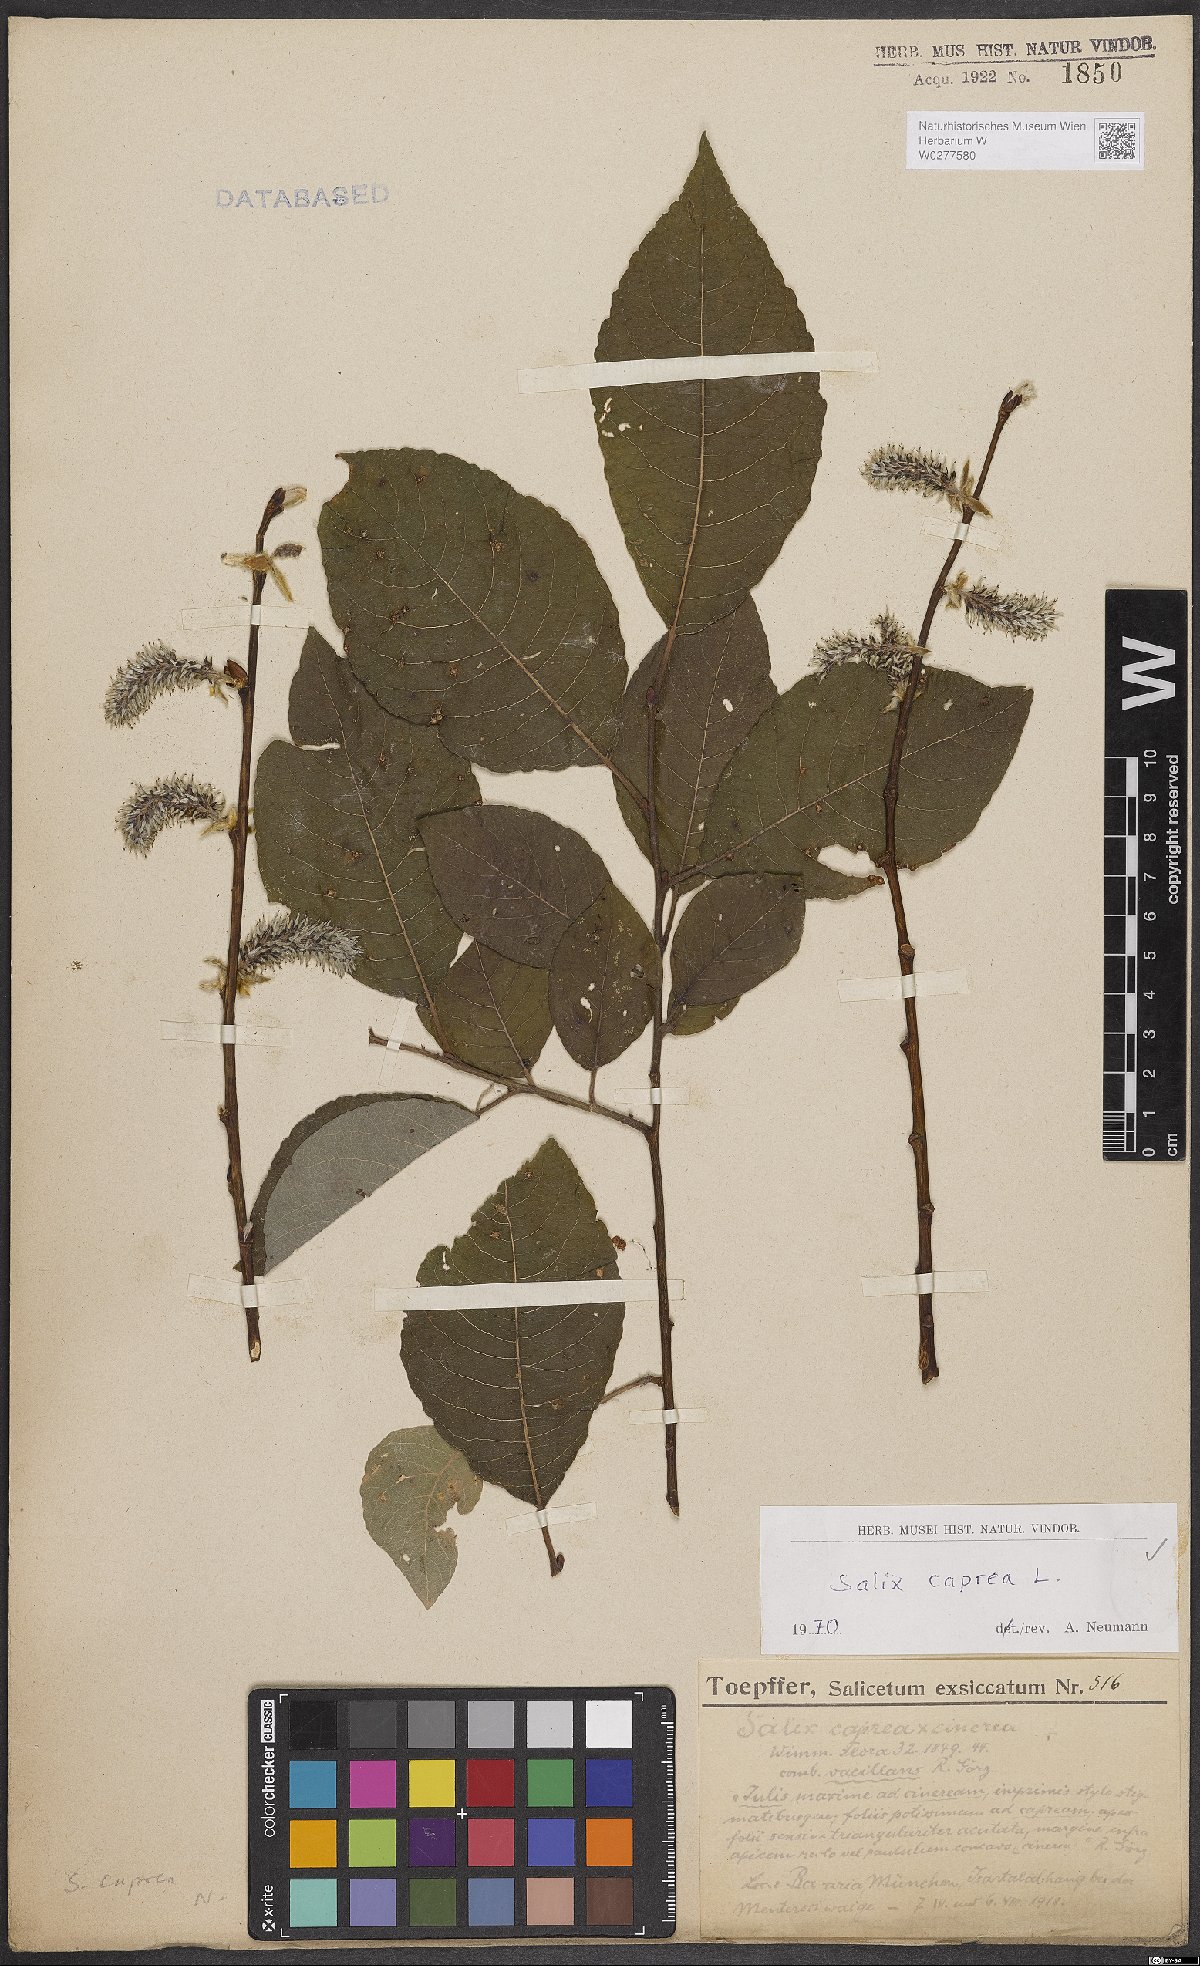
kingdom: Plantae
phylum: Tracheophyta
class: Magnoliopsida
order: Malpighiales
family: Salicaceae
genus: Salix
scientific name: Salix caprea
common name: Goat willow
